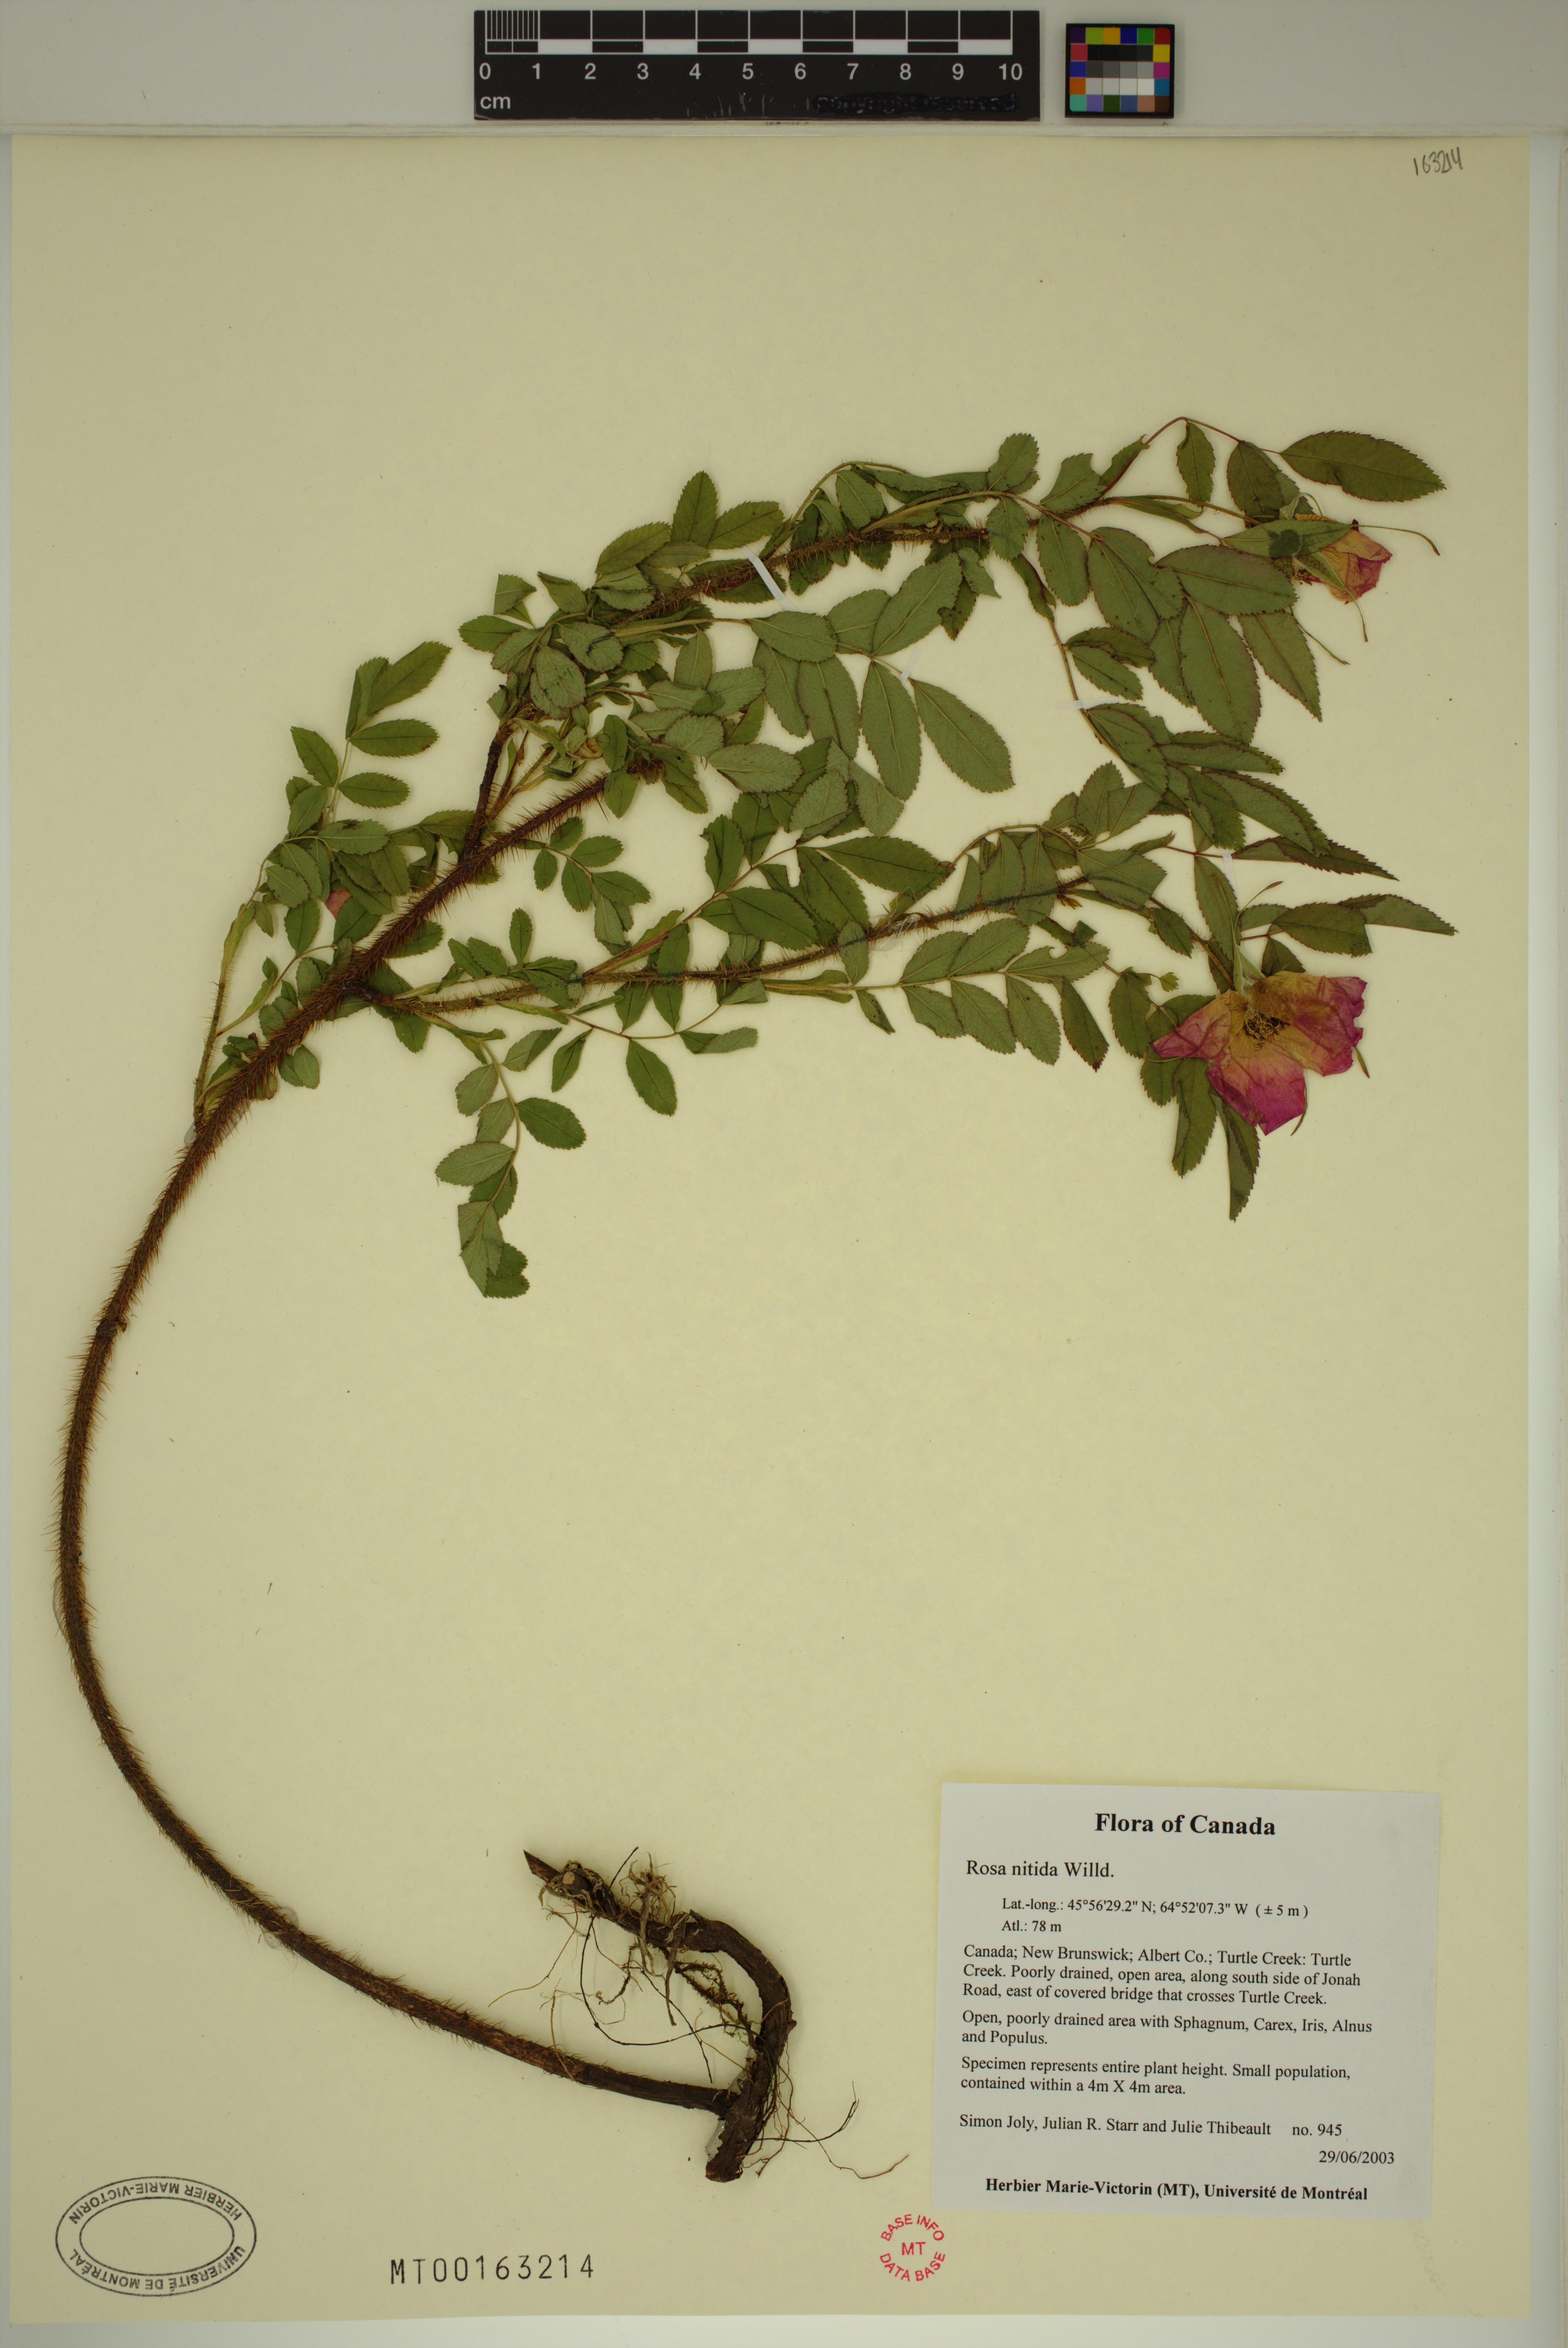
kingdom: Plantae
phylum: Tracheophyta
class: Magnoliopsida
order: Rosales
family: Rosaceae
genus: Rosa
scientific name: Rosa nitida
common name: New england rose
